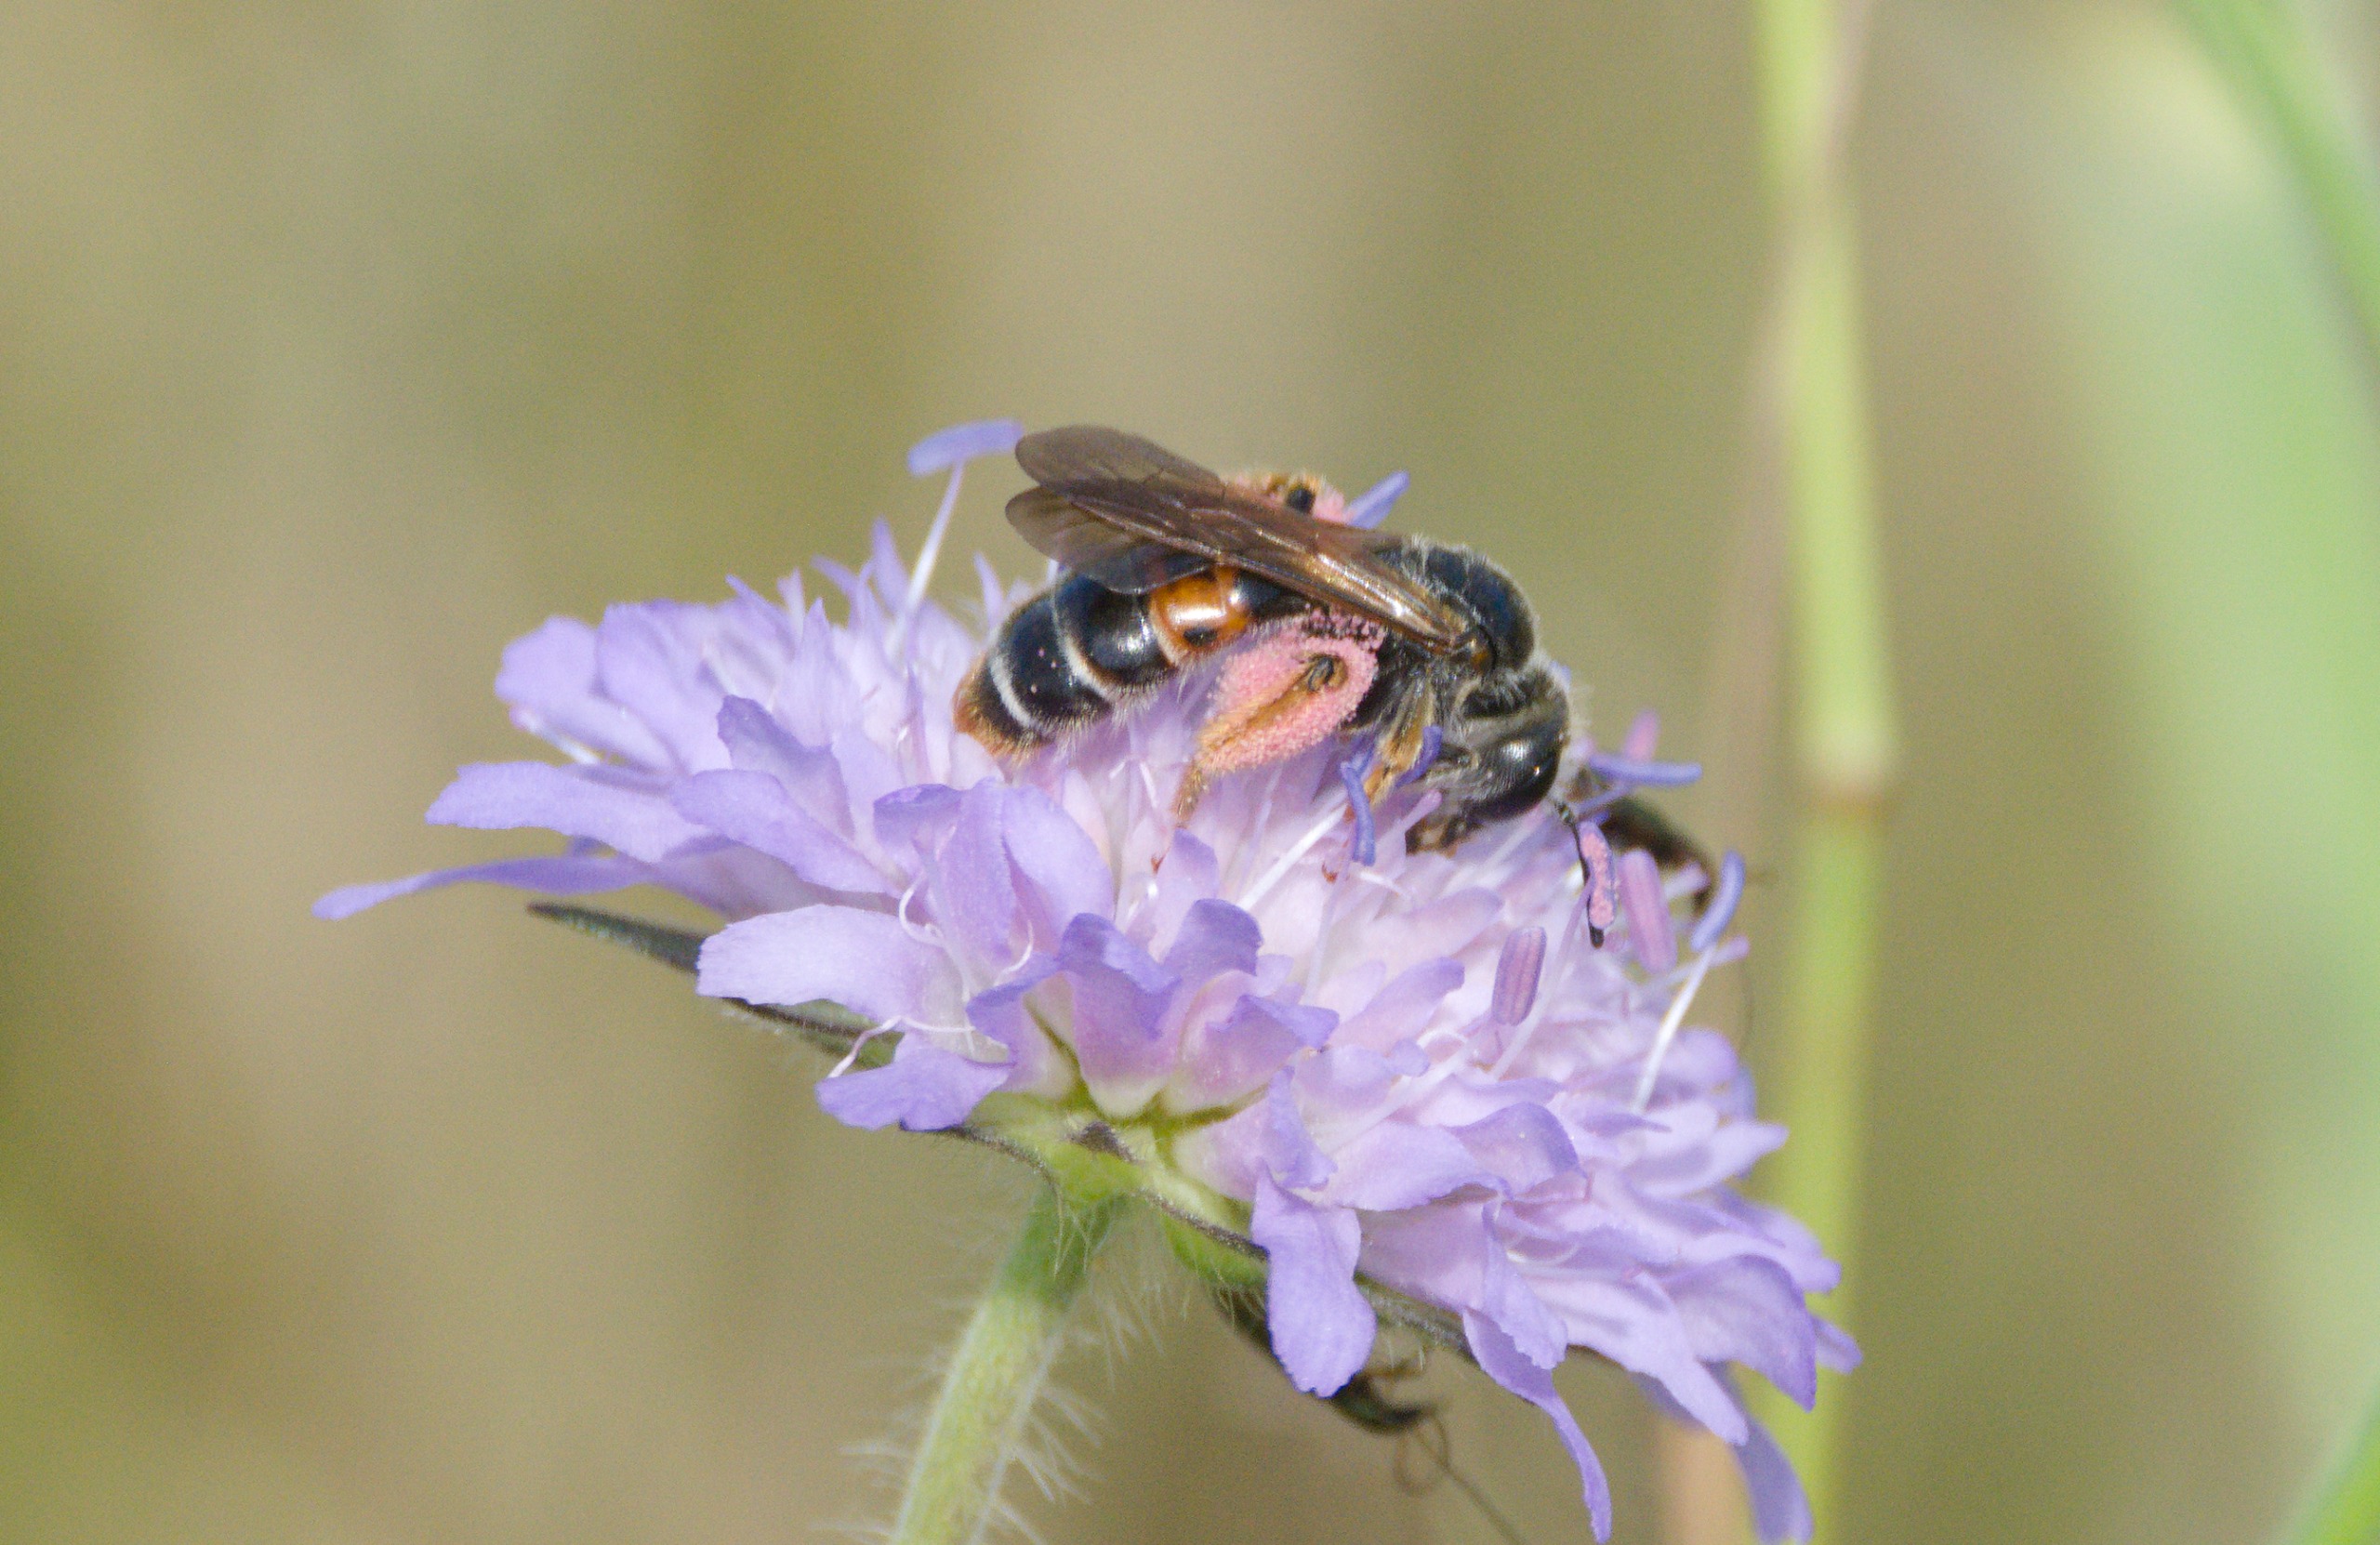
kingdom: Animalia
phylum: Arthropoda
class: Insecta
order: Hymenoptera
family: Andrenidae
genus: Andrena
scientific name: Andrena hattorfiana
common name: Blåhatjordbi
